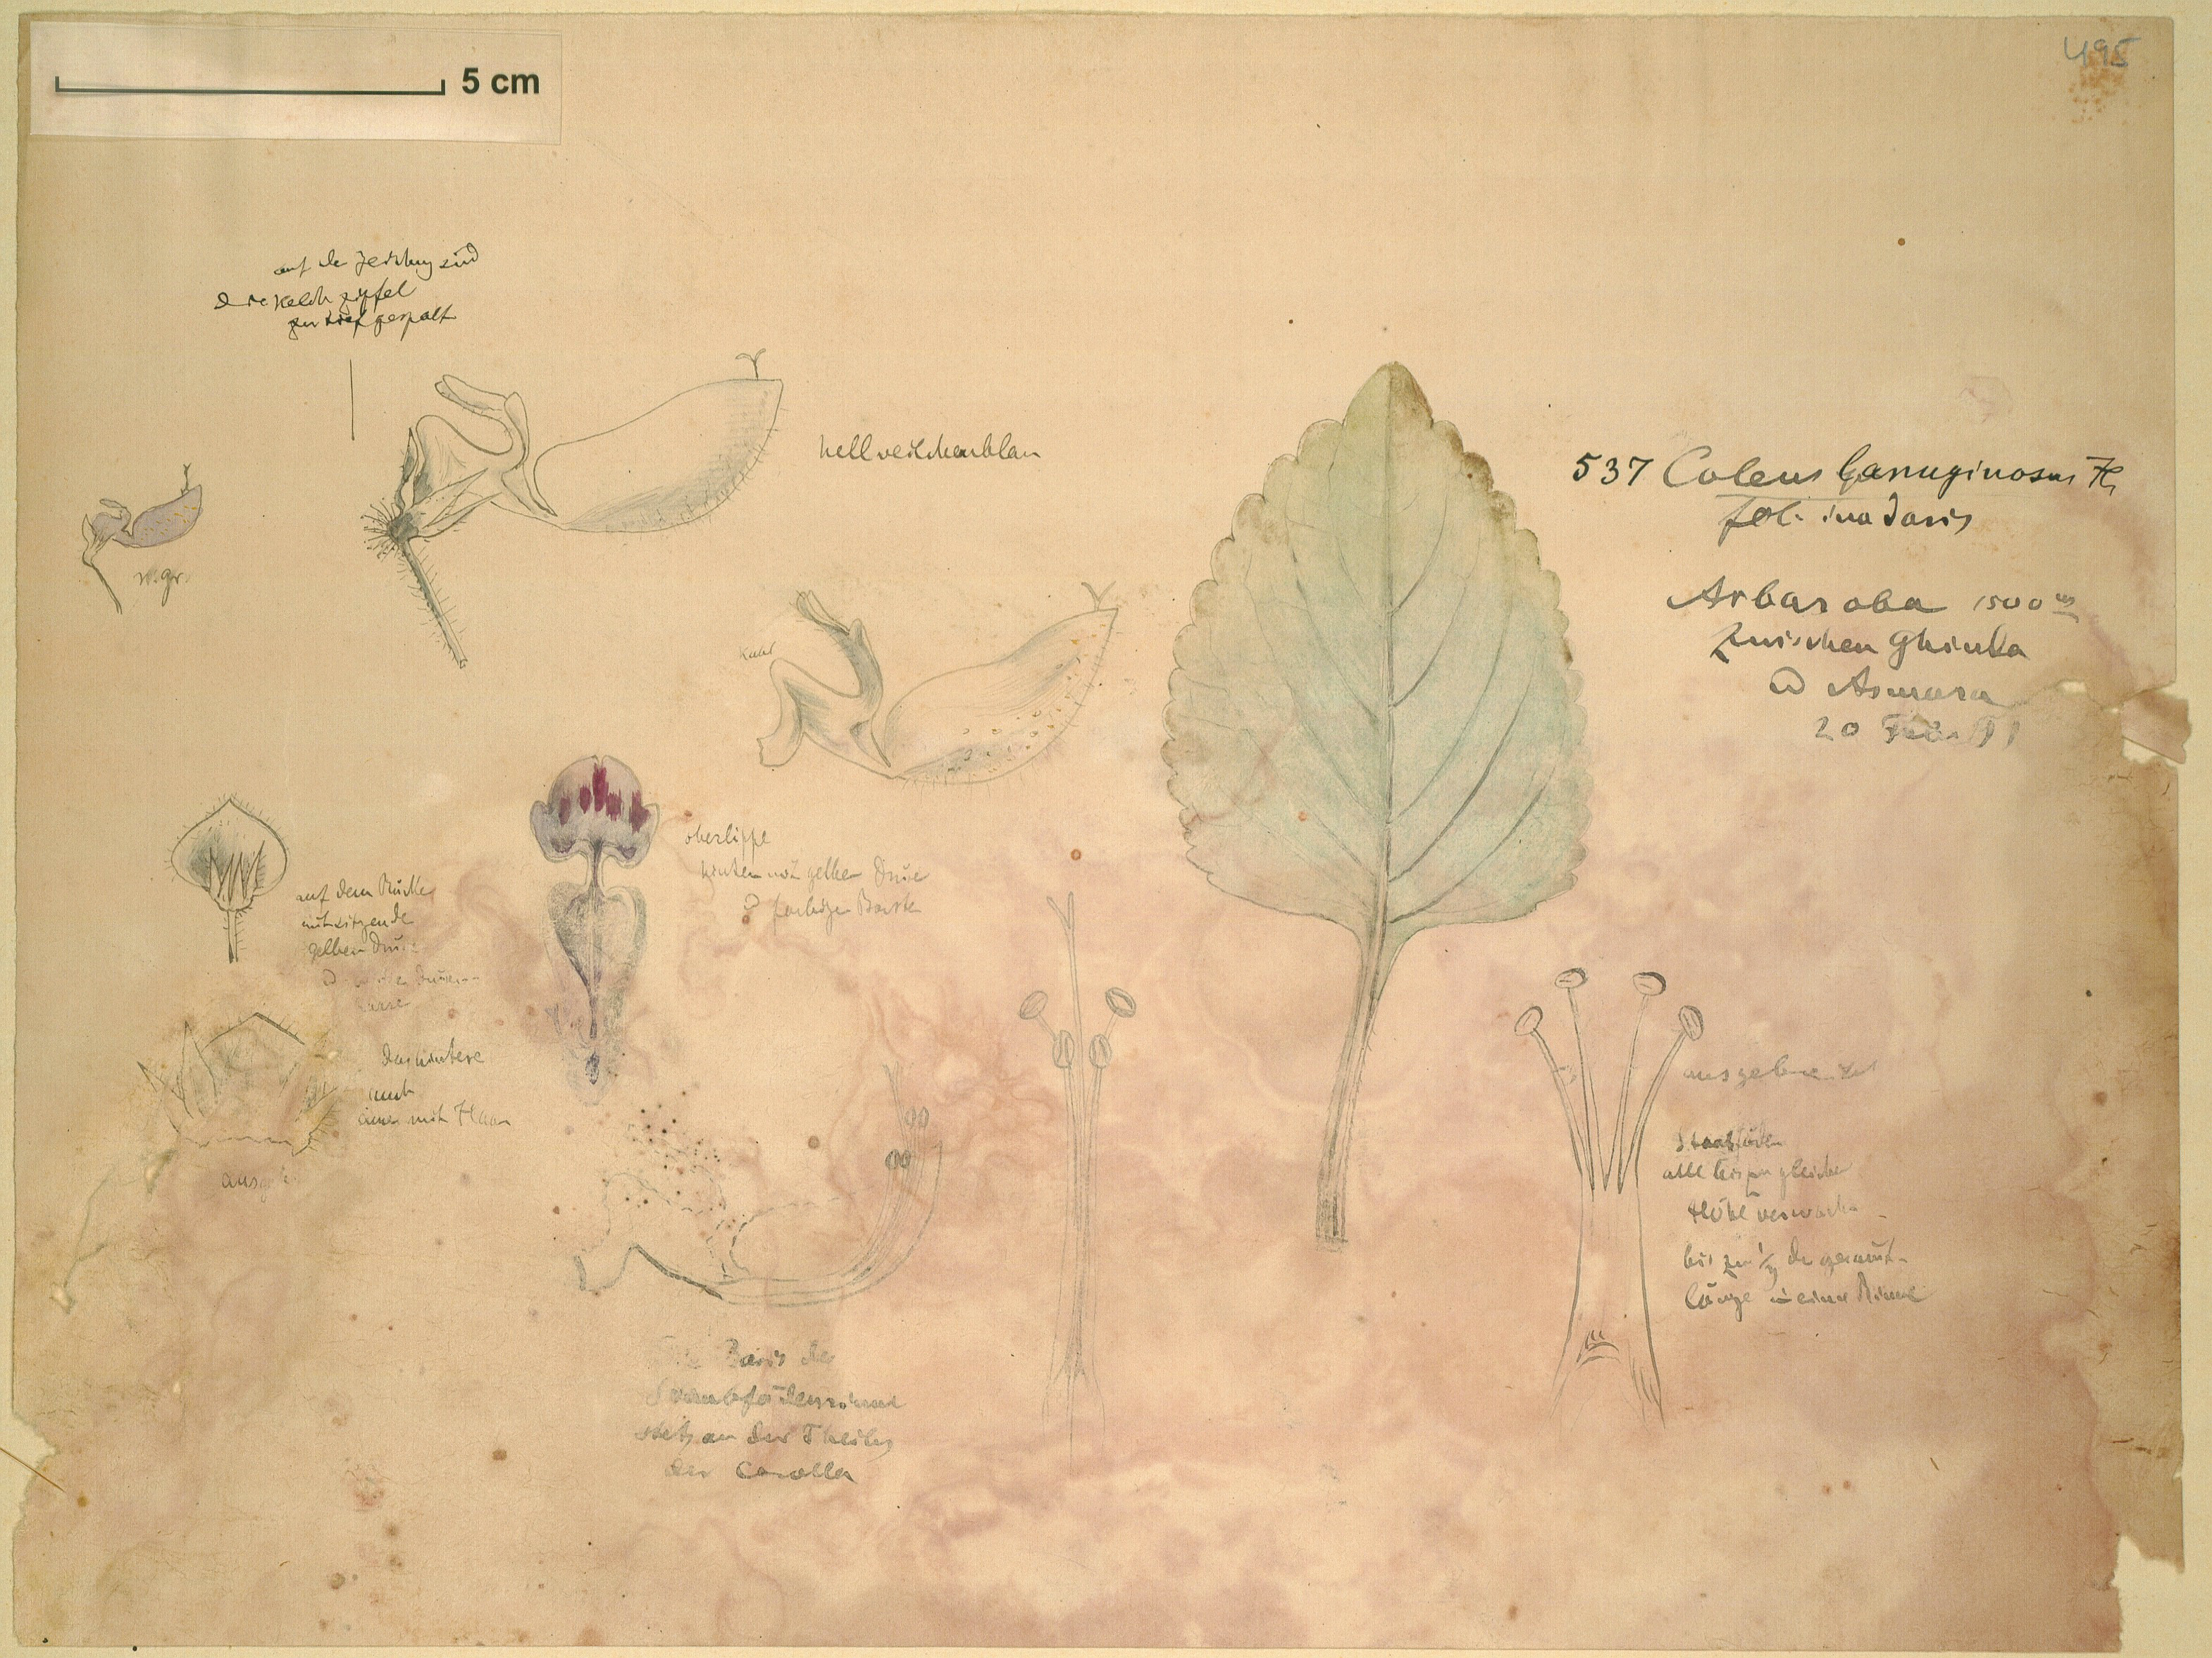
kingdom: Plantae
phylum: Tracheophyta
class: Magnoliopsida
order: Lamiales
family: Lamiaceae
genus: Coleus
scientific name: Coleus lanuginosus
